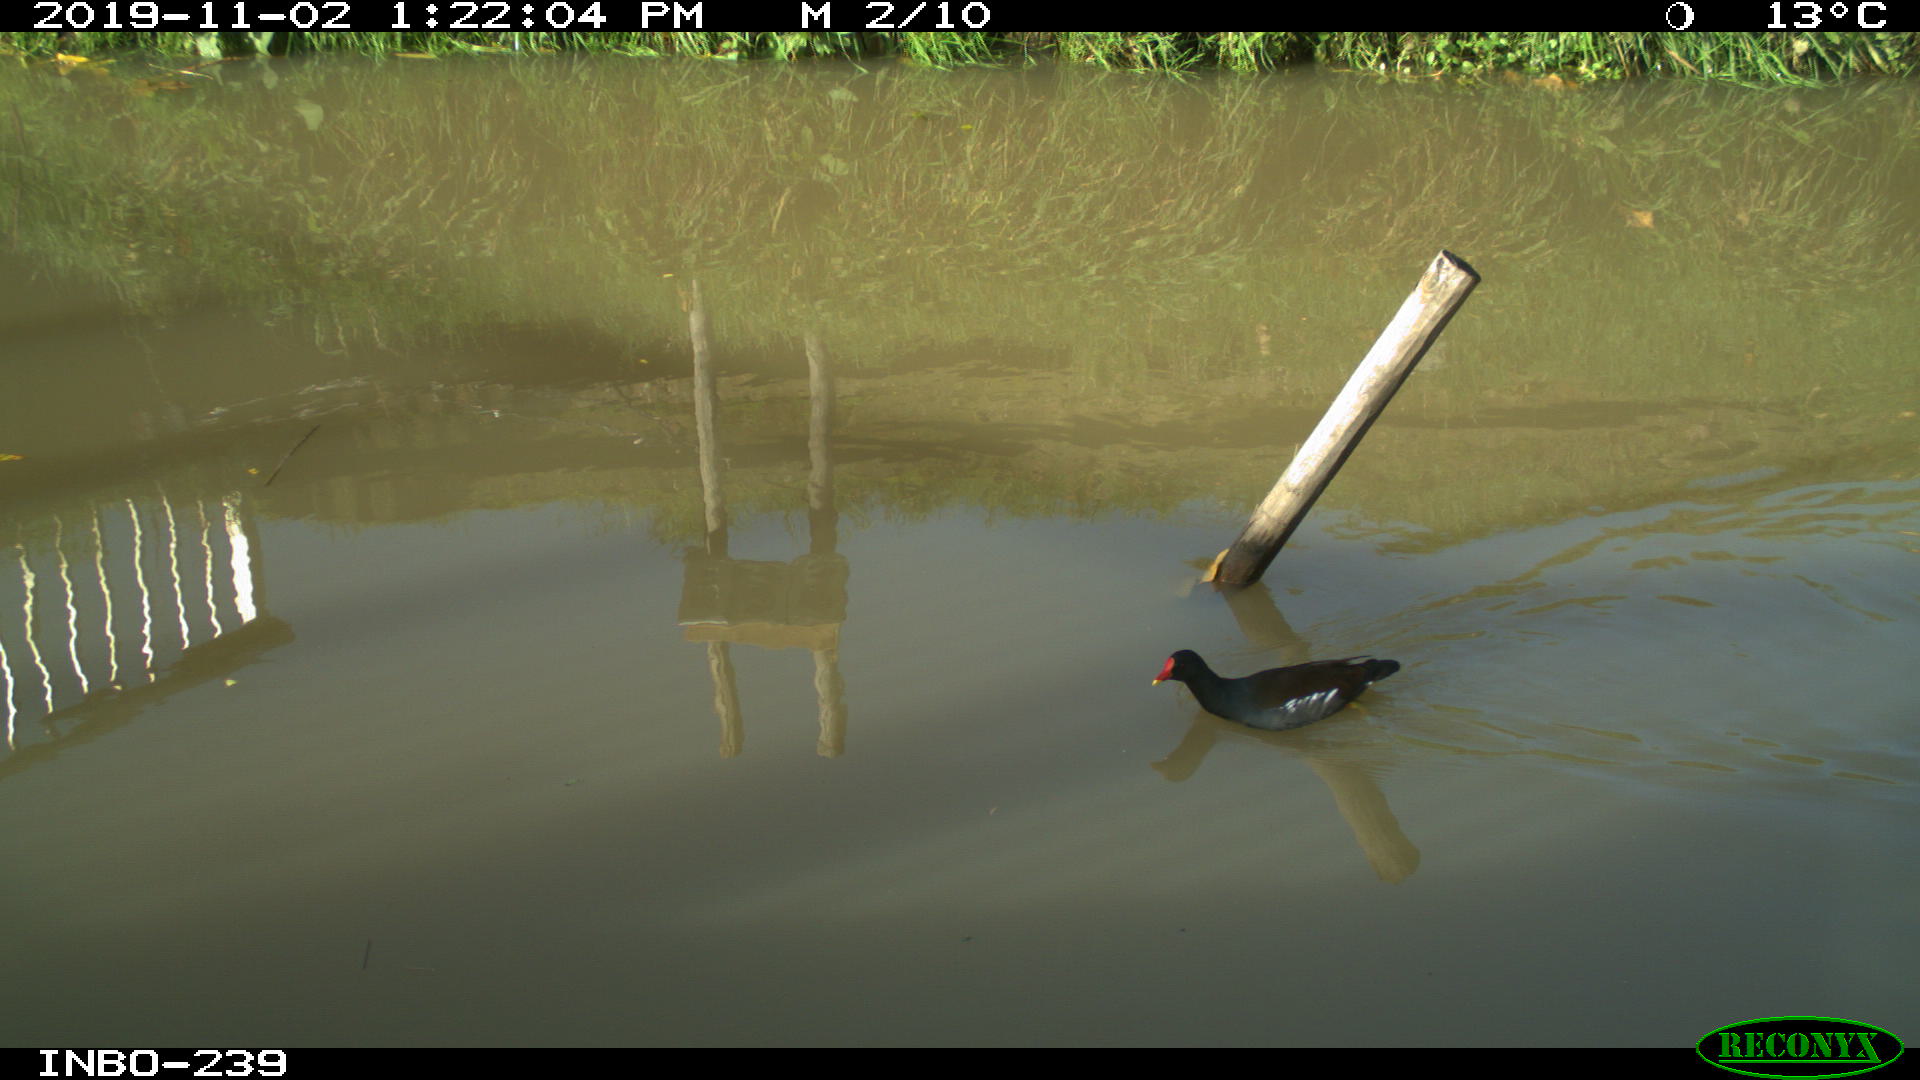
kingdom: Animalia
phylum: Chordata
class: Aves
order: Gruiformes
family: Rallidae
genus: Gallinula
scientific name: Gallinula chloropus
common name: Common moorhen
